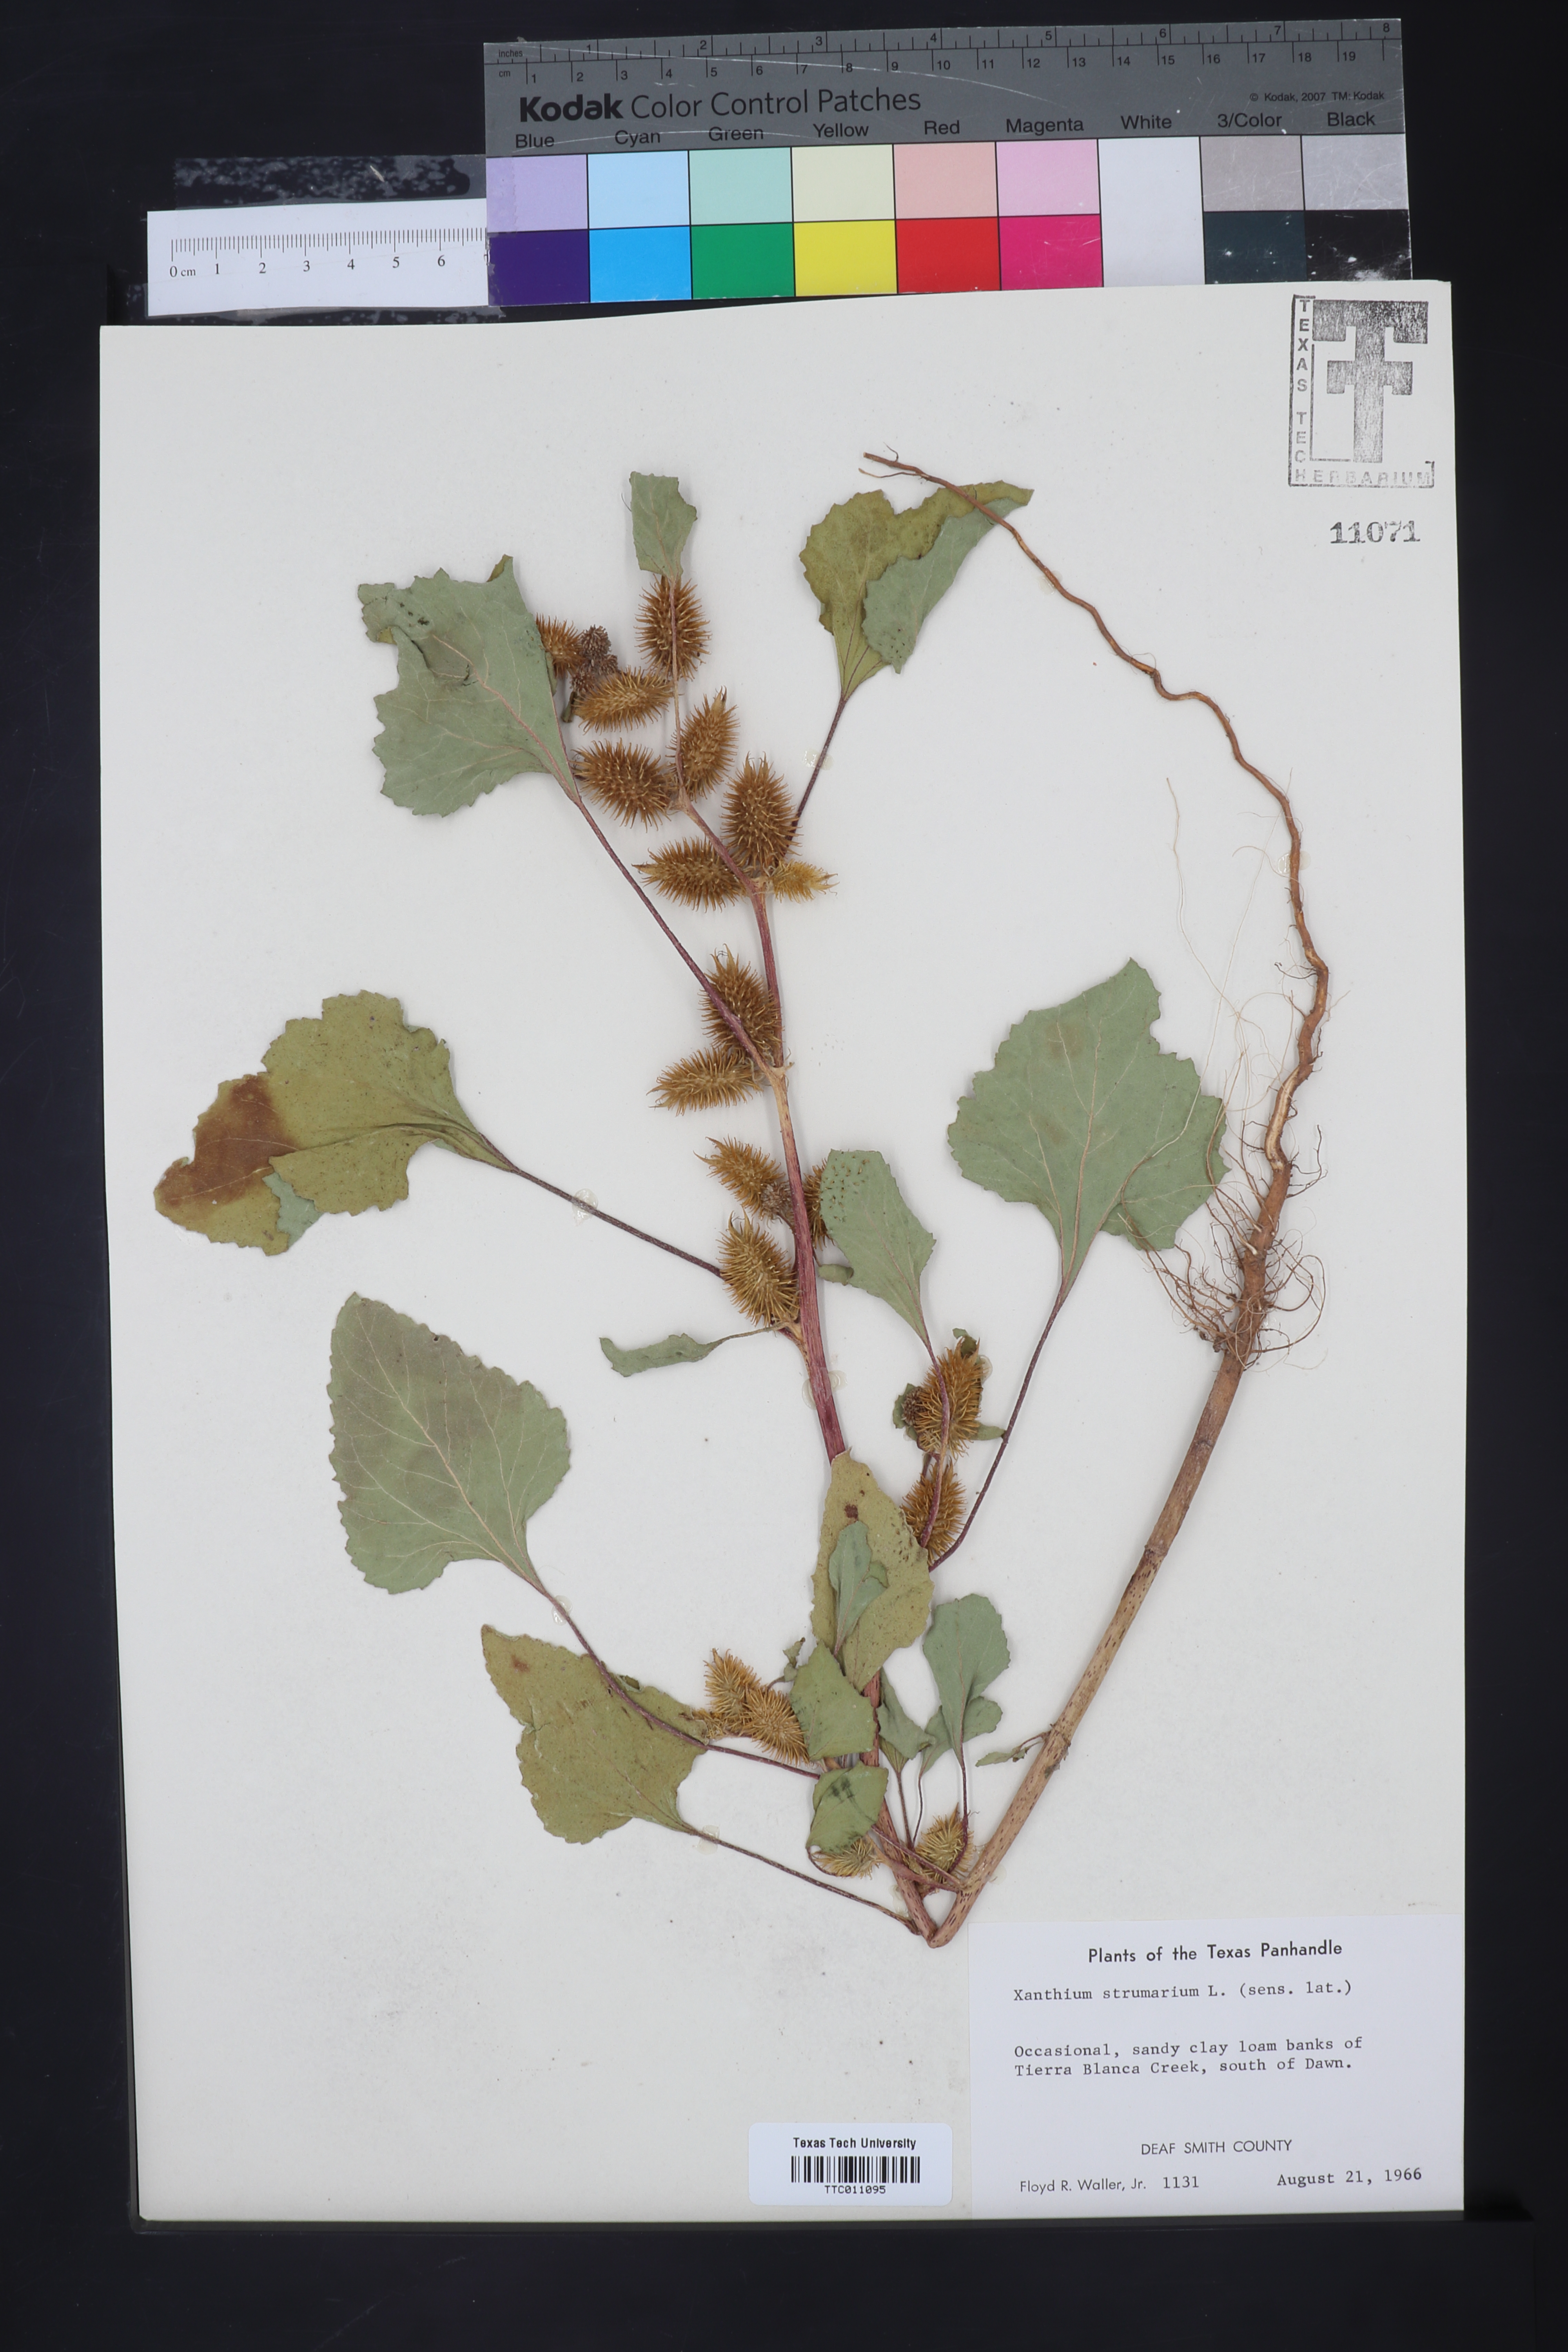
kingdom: Plantae
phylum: Tracheophyta
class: Magnoliopsida
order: Asterales
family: Asteraceae
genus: Xanthium
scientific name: Xanthium strumarium
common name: Rough cocklebur
